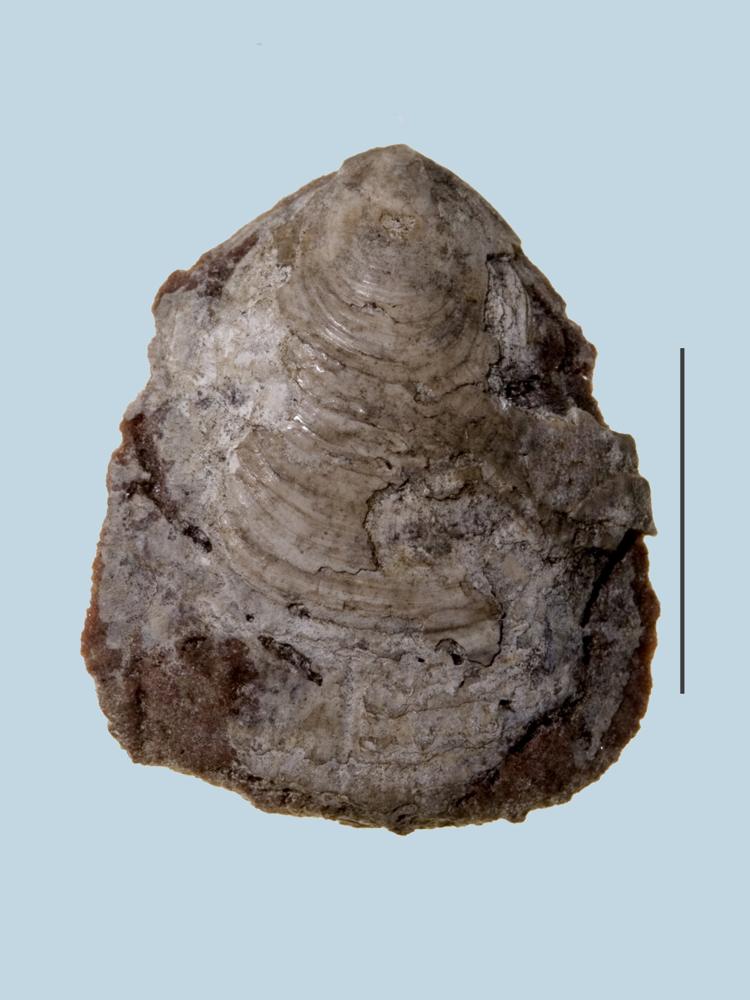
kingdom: Animalia
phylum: Brachiopoda
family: Plectambonitidae
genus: Plectambonites
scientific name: Plectambonites sericea
